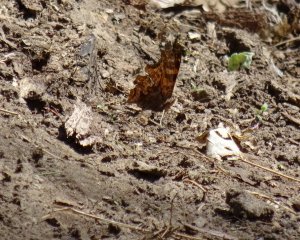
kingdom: Animalia
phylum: Arthropoda
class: Insecta
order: Lepidoptera
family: Nymphalidae
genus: Polygonia
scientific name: Polygonia comma
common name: Eastern Comma
